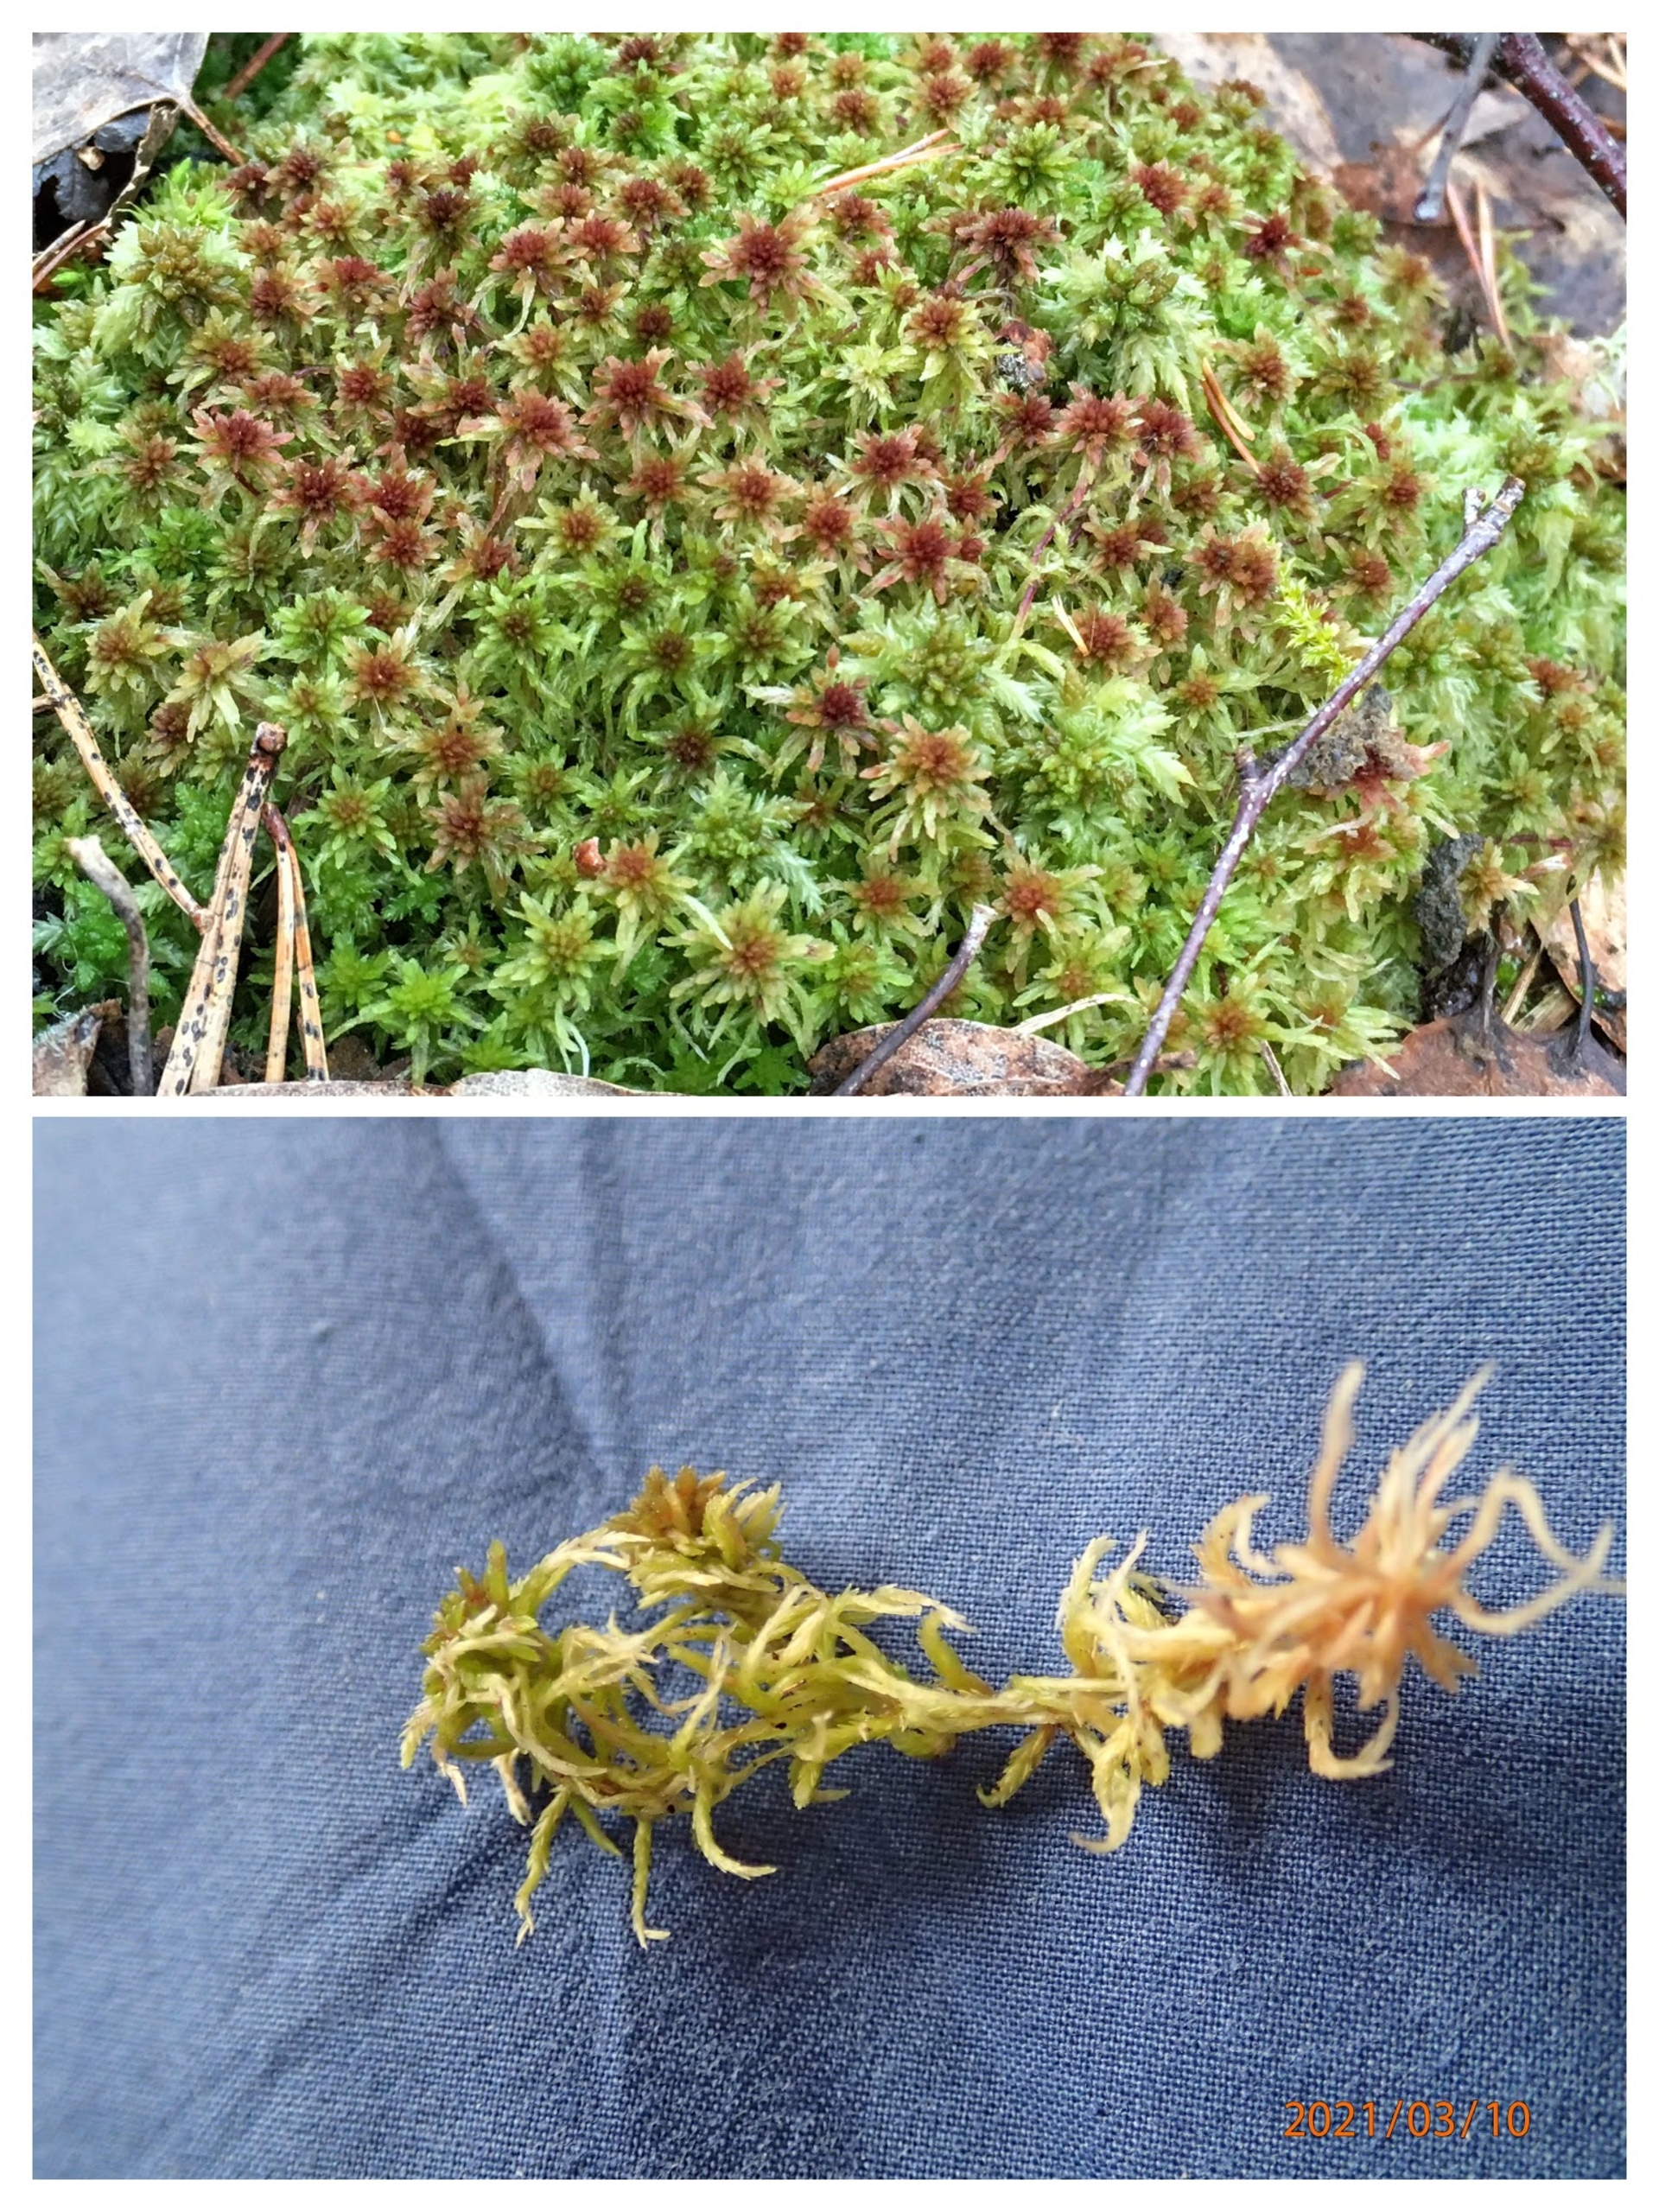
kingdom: Plantae
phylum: Bryophyta
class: Sphagnopsida
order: Sphagnales
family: Sphagnaceae
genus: Sphagnum
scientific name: Sphagnum
